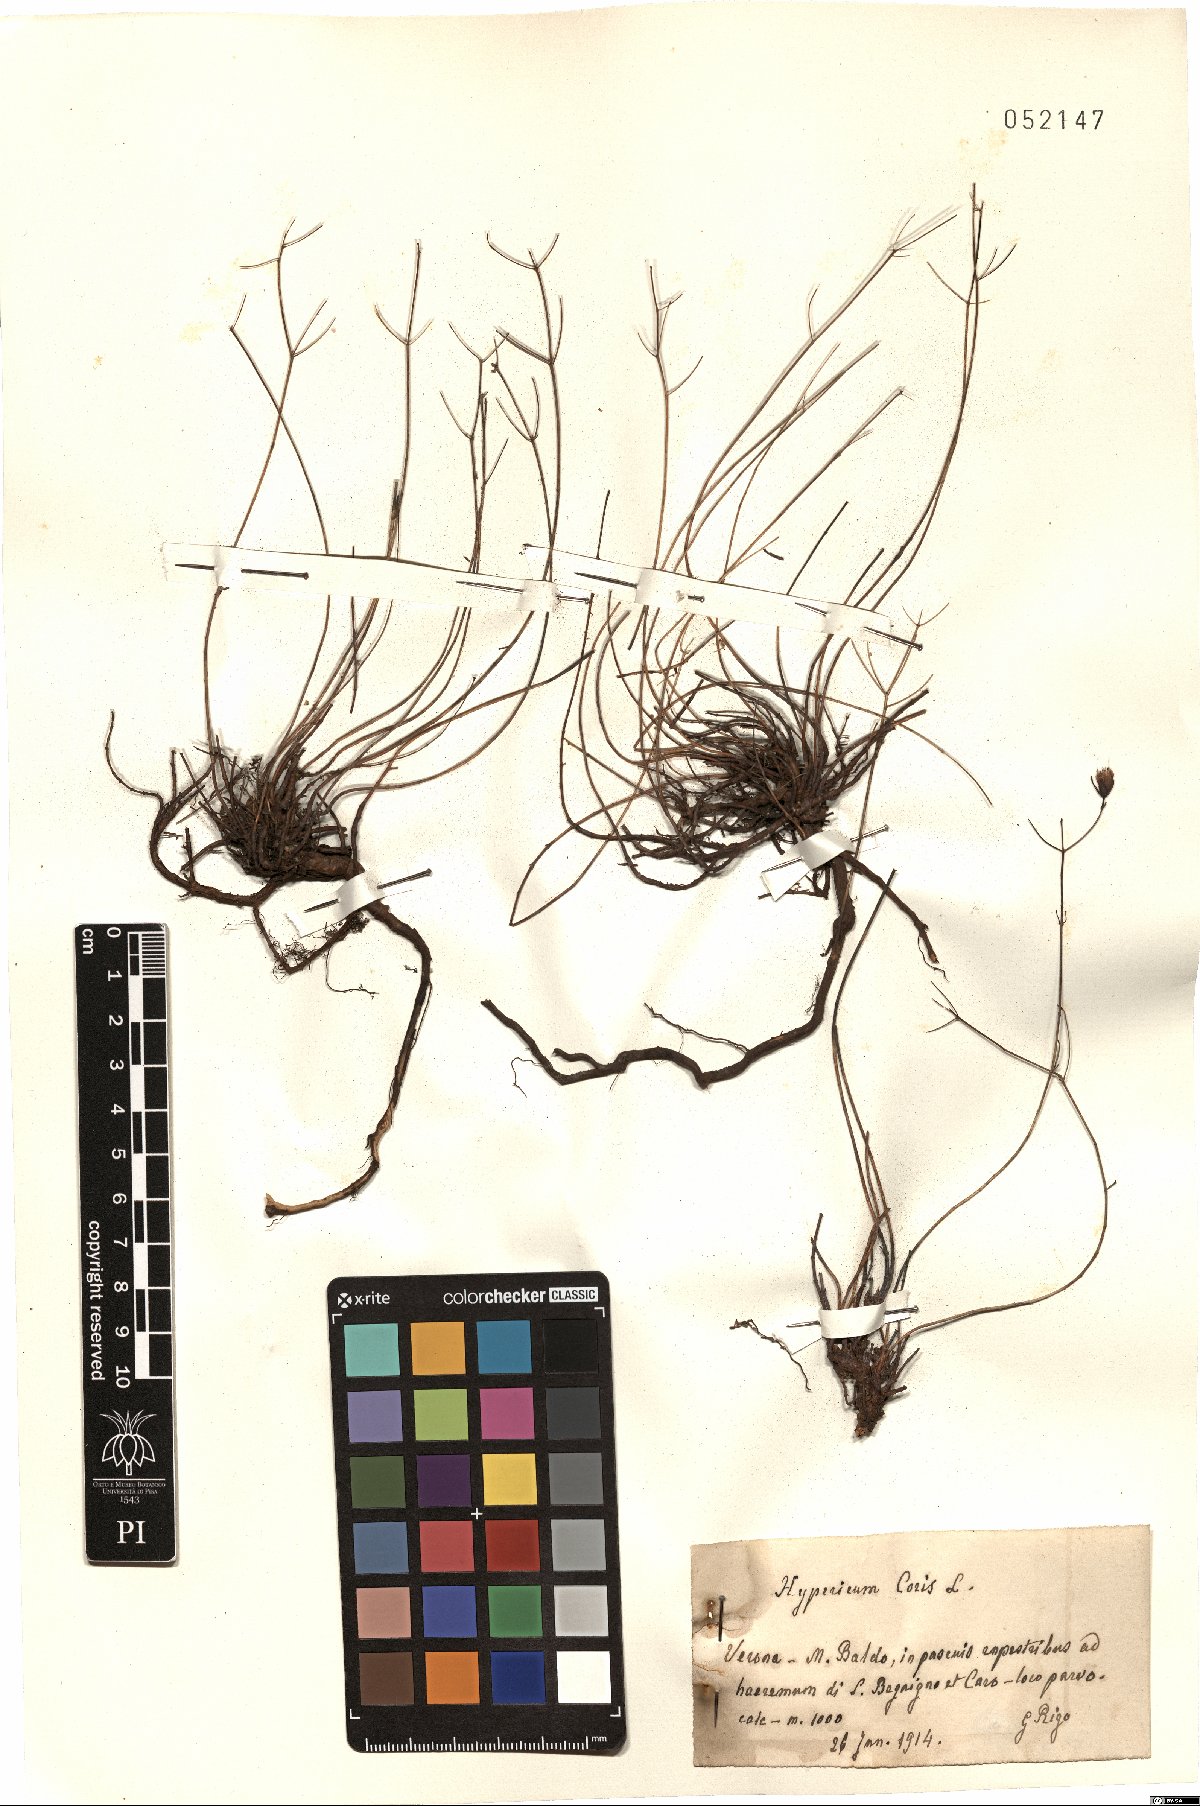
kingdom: Plantae
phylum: Tracheophyta
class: Magnoliopsida
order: Malpighiales
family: Hypericaceae
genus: Hypericum
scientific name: Hypericum coris
